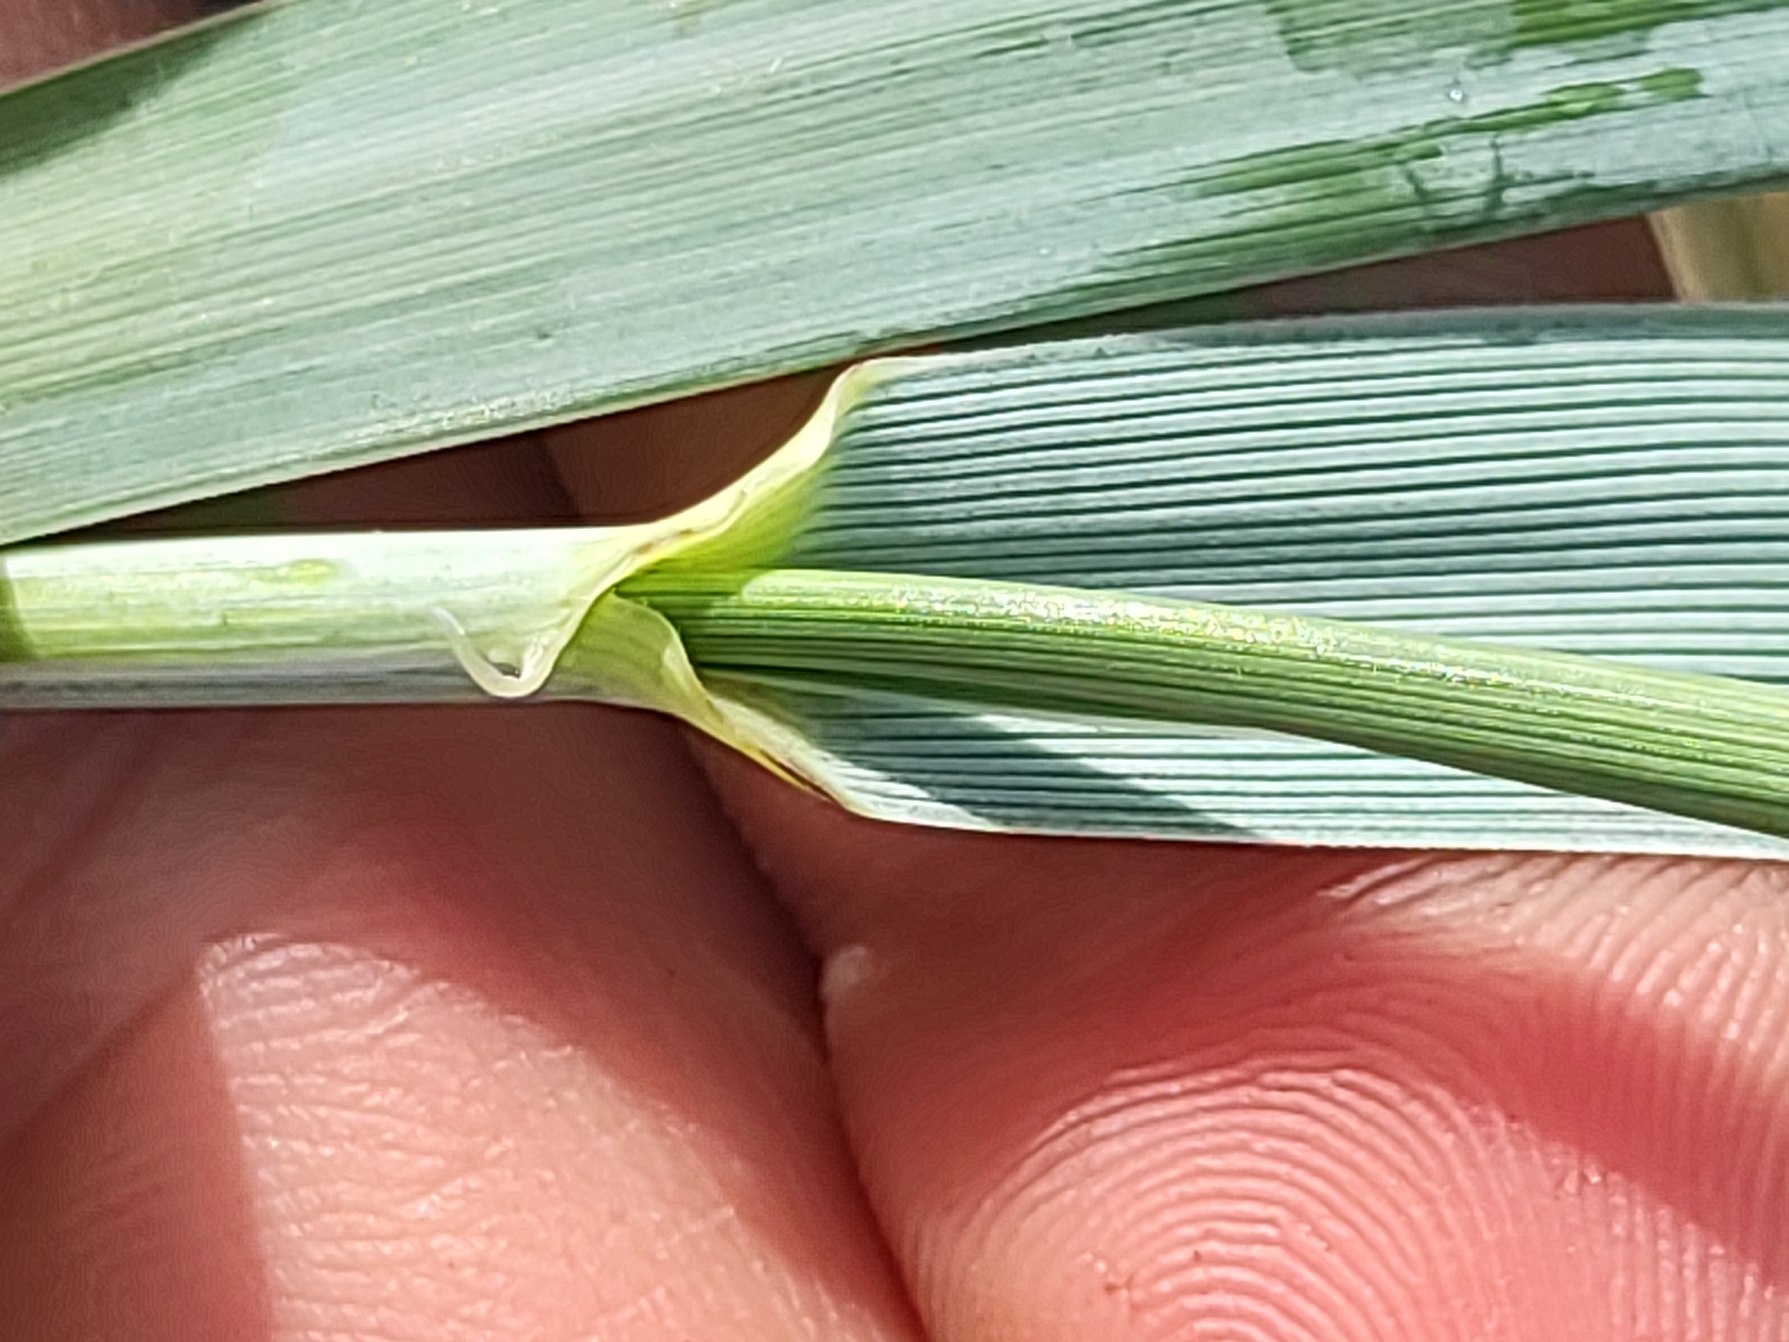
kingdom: Plantae
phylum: Tracheophyta
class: Liliopsida
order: Poales
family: Poaceae
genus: Leymus
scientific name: Leymus arenarius
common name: Marehalm
